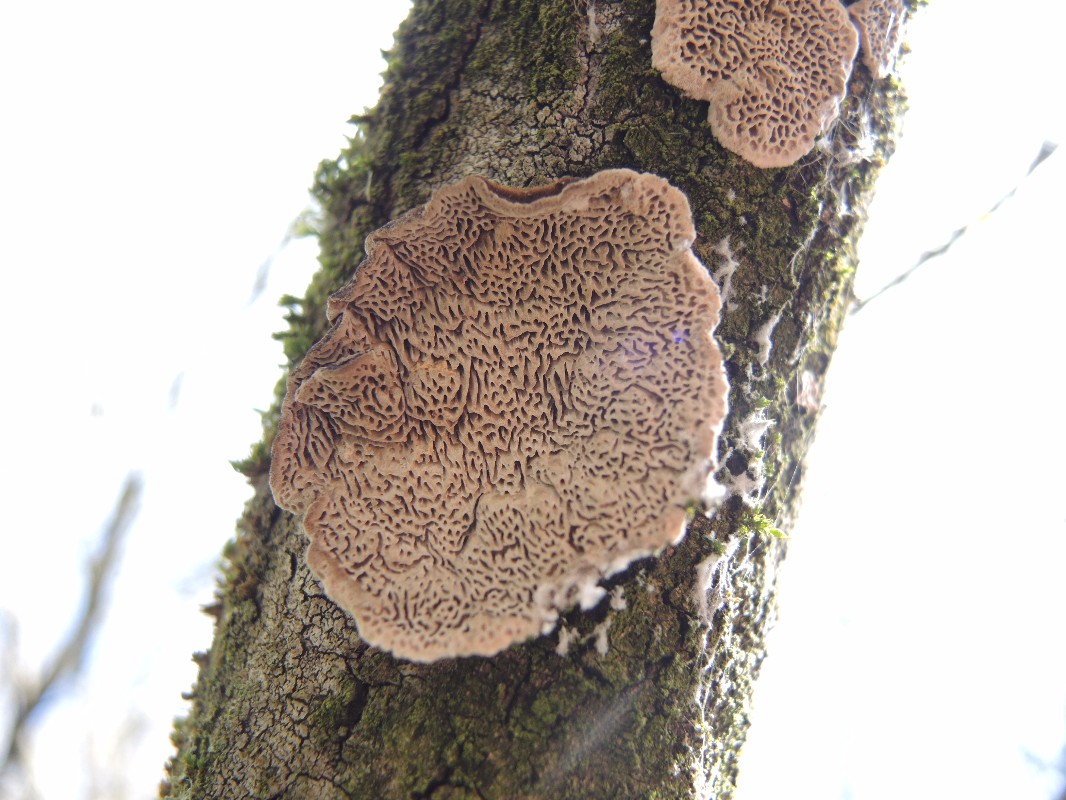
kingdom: Fungi
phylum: Basidiomycota
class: Agaricomycetes
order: Polyporales
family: Polyporaceae
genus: Podofomes
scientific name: Podofomes mollis
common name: blød begporesvamp
